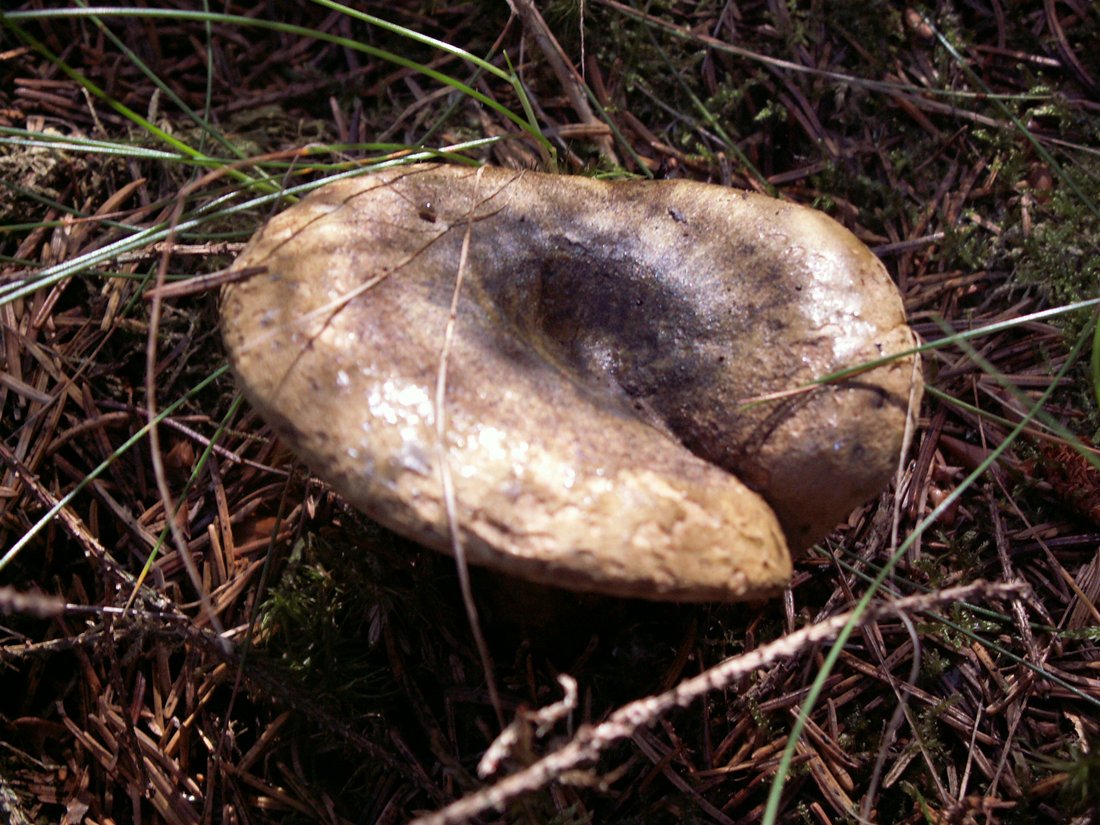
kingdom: Fungi
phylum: Basidiomycota
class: Agaricomycetes
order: Russulales
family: Russulaceae
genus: Lactarius
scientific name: Lactarius necator
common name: manddraber-mælkehat
